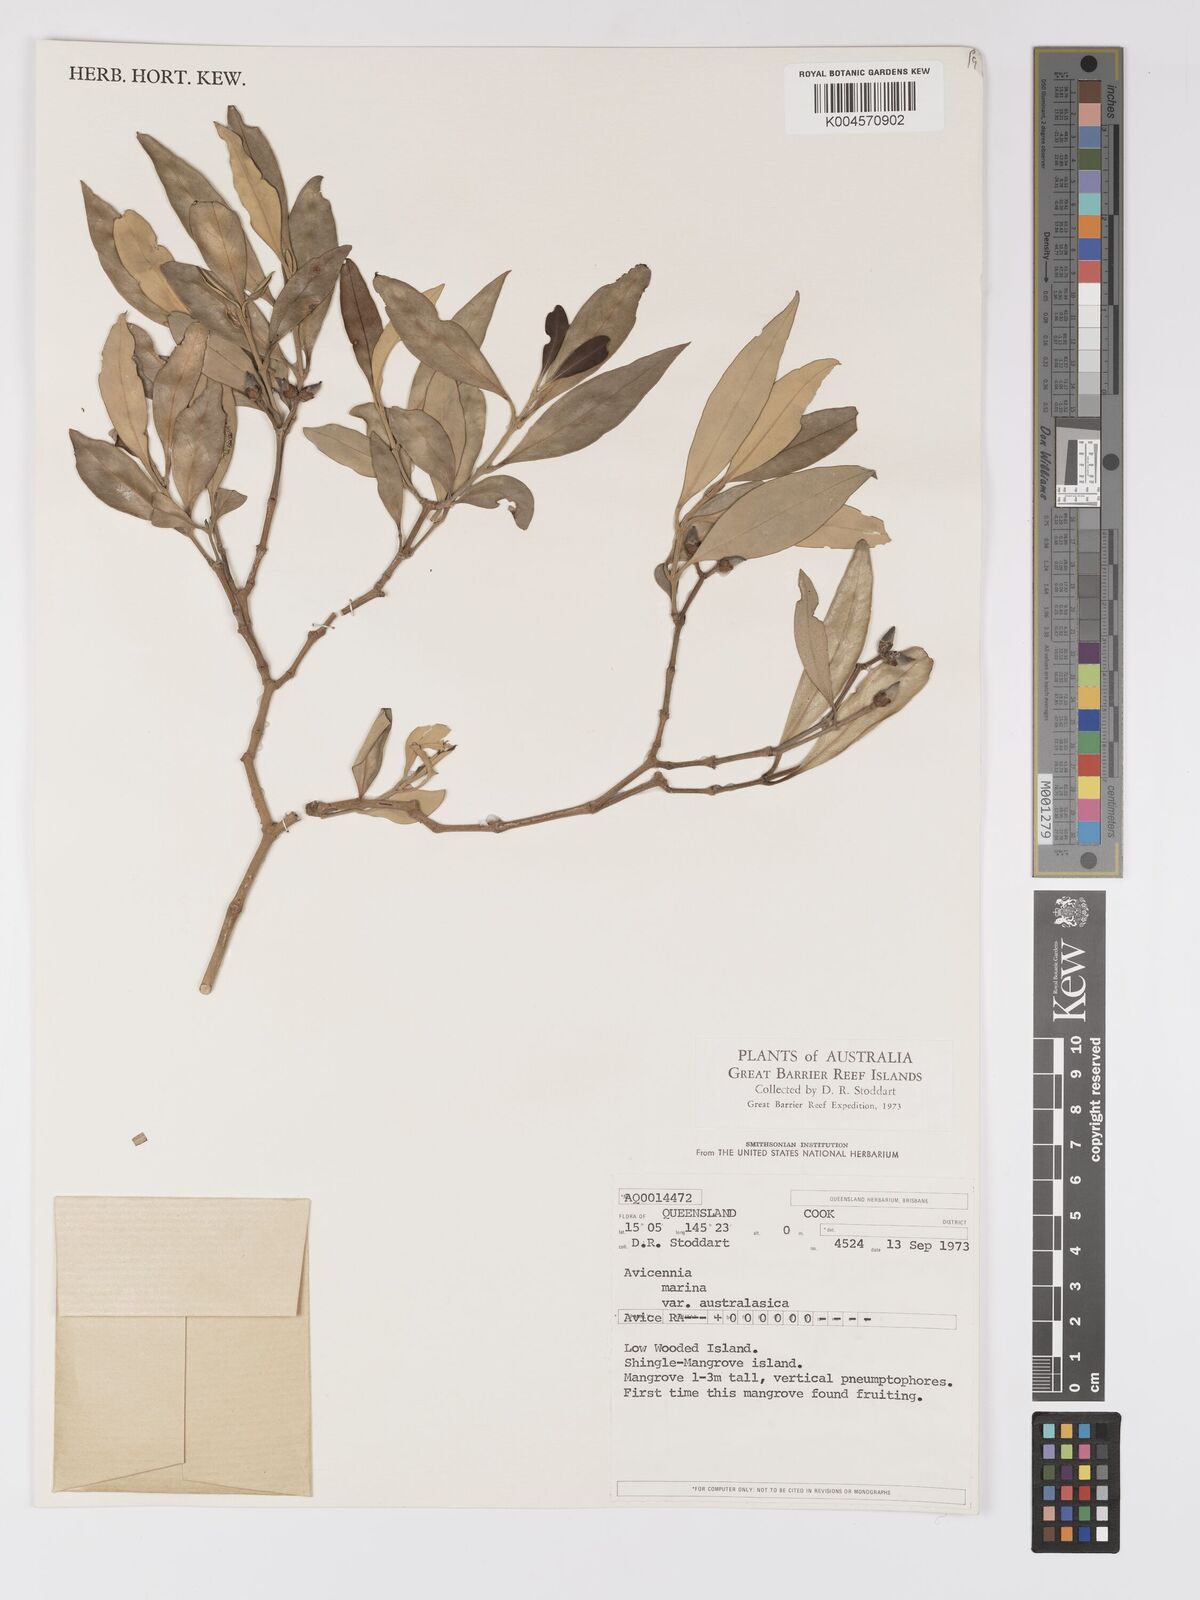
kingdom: Plantae
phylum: Tracheophyta
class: Magnoliopsida
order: Lamiales
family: Acanthaceae
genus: Avicennia
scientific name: Avicennia marina
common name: Gray mangrove
